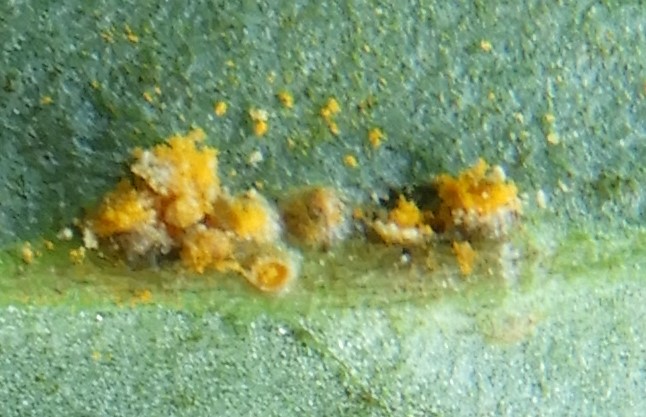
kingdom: Fungi
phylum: Basidiomycota
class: Pucciniomycetes
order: Pucciniales
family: Pucciniaceae
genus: Puccinia
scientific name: Puccinia calthae
